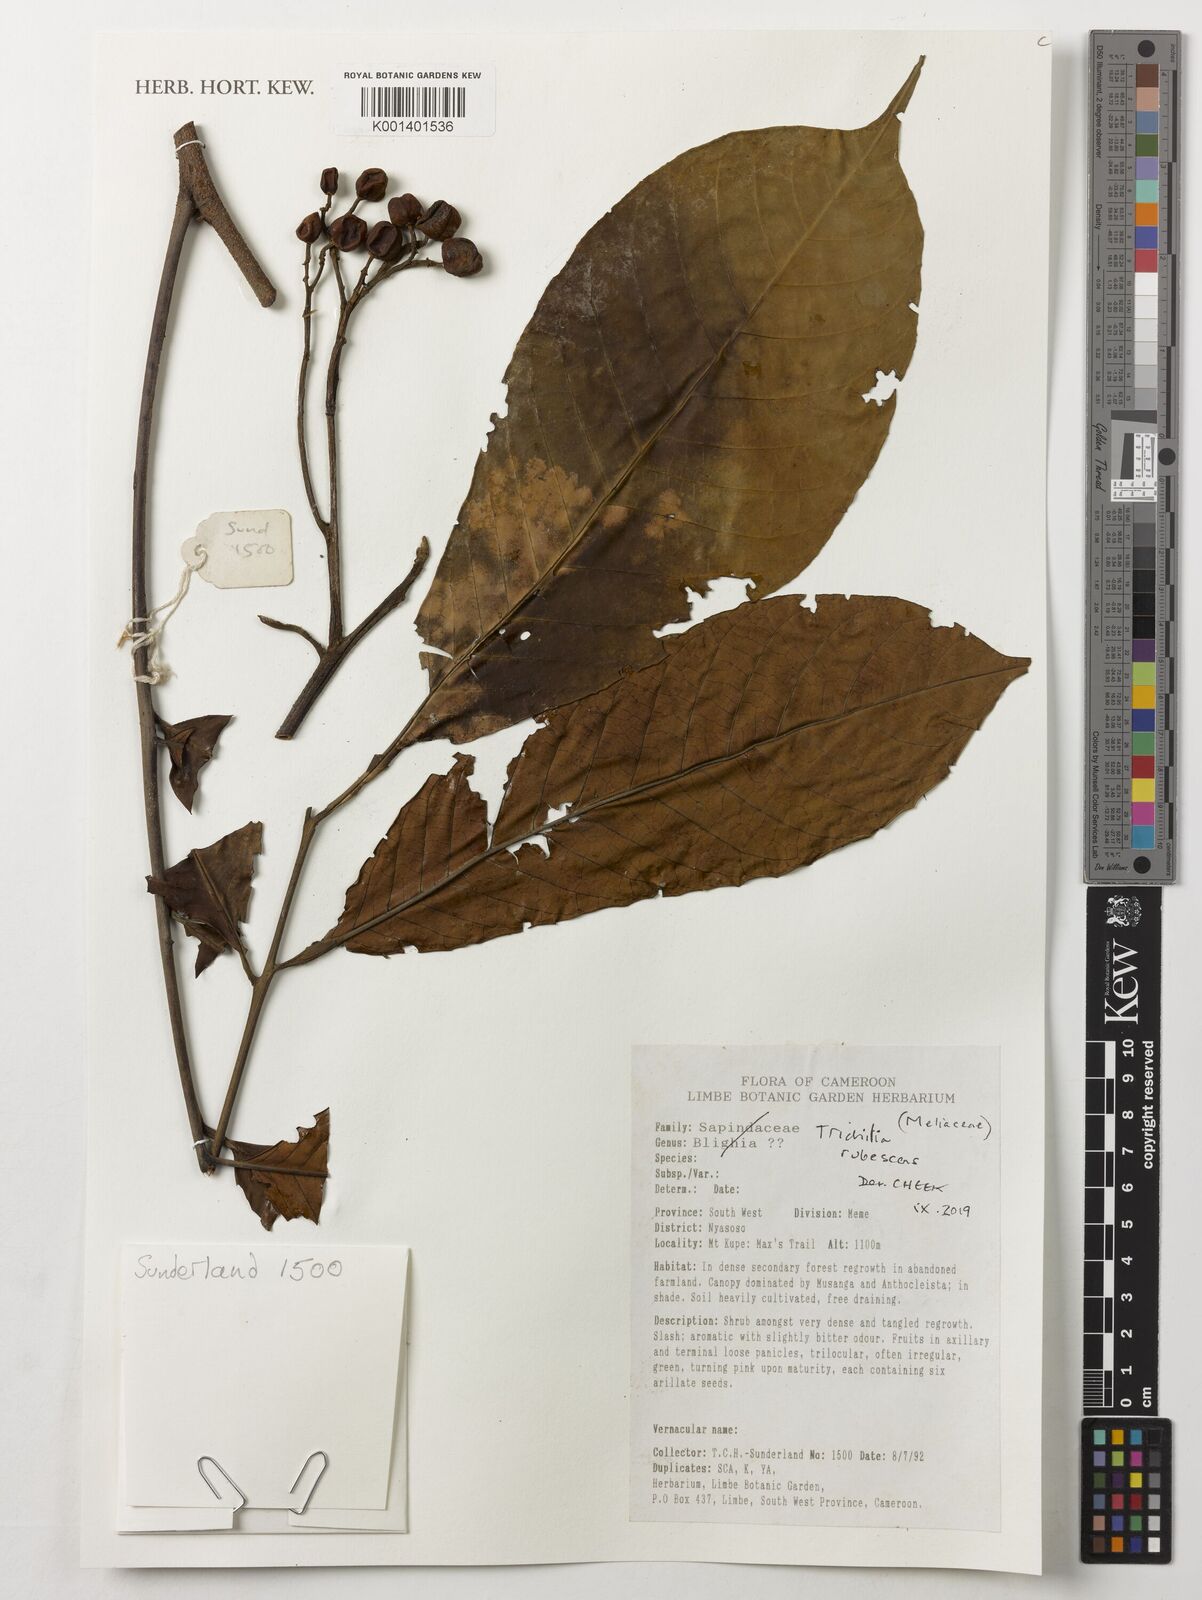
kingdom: Plantae
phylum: Tracheophyta
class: Magnoliopsida
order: Sapindales
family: Meliaceae
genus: Trichilia
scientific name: Trichilia rubescens
